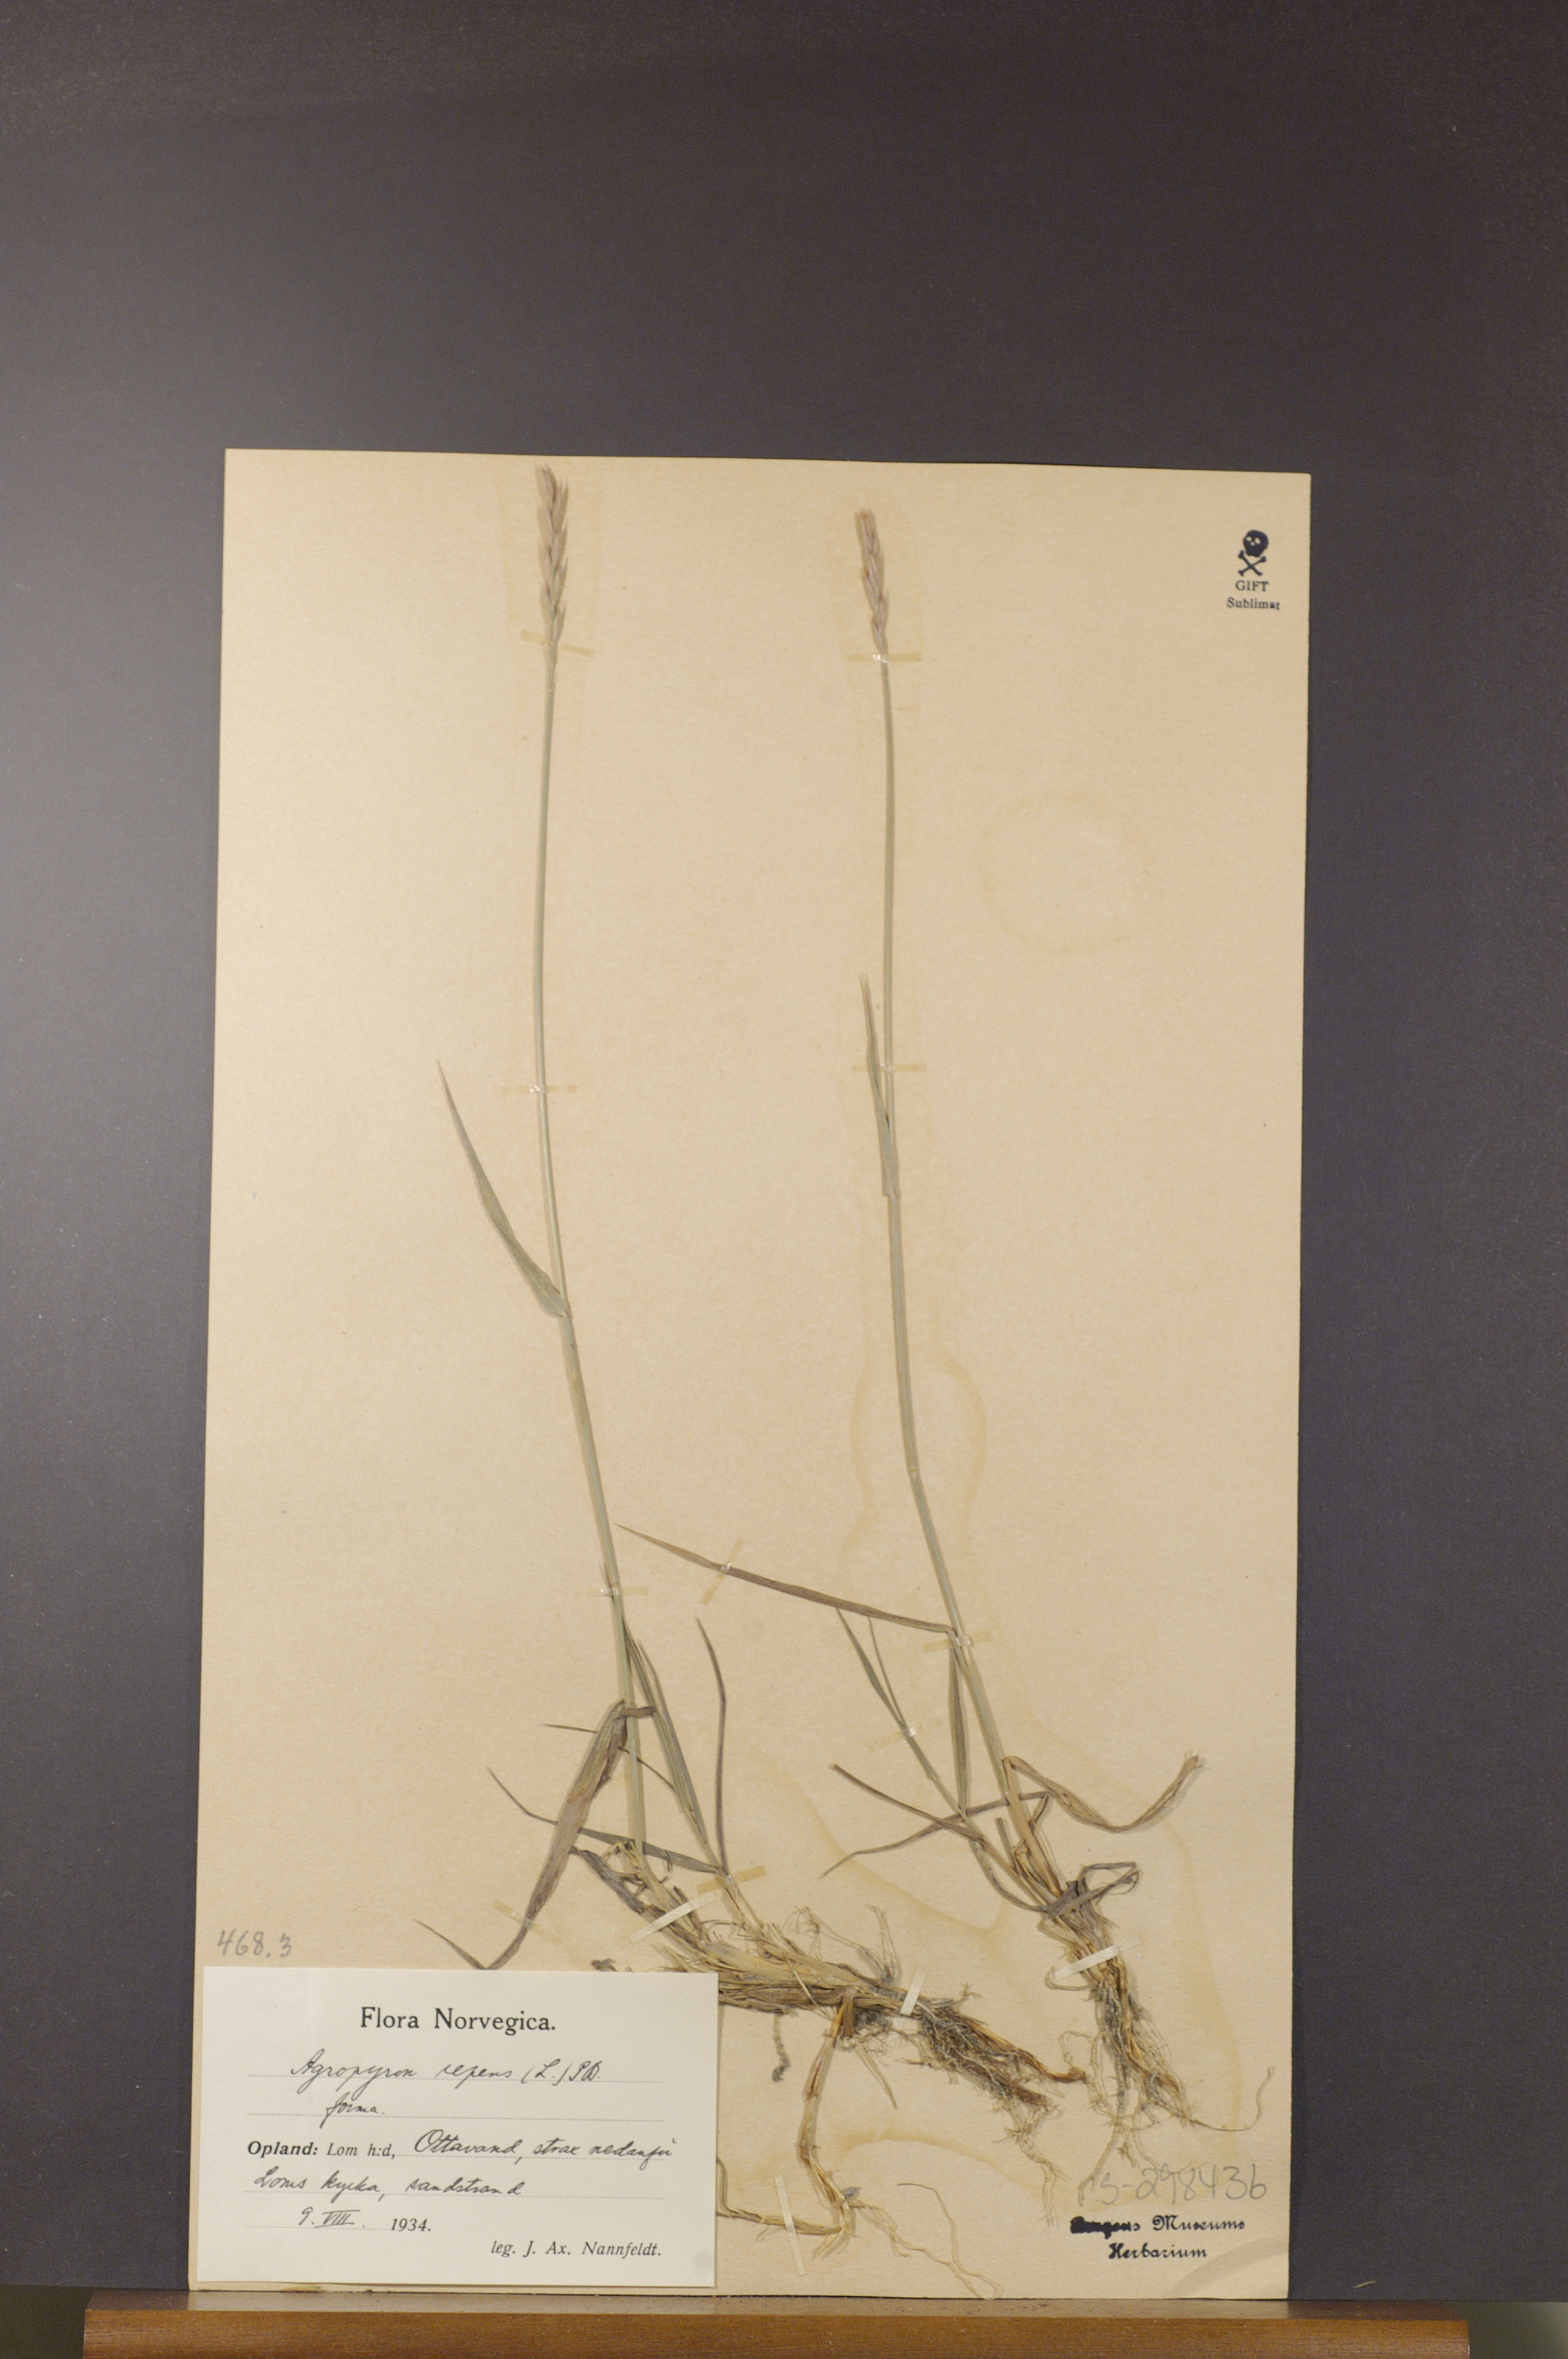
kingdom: Plantae
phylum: Tracheophyta
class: Liliopsida
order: Poales
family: Poaceae
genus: Elymus
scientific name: Elymus repens
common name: Quackgrass
